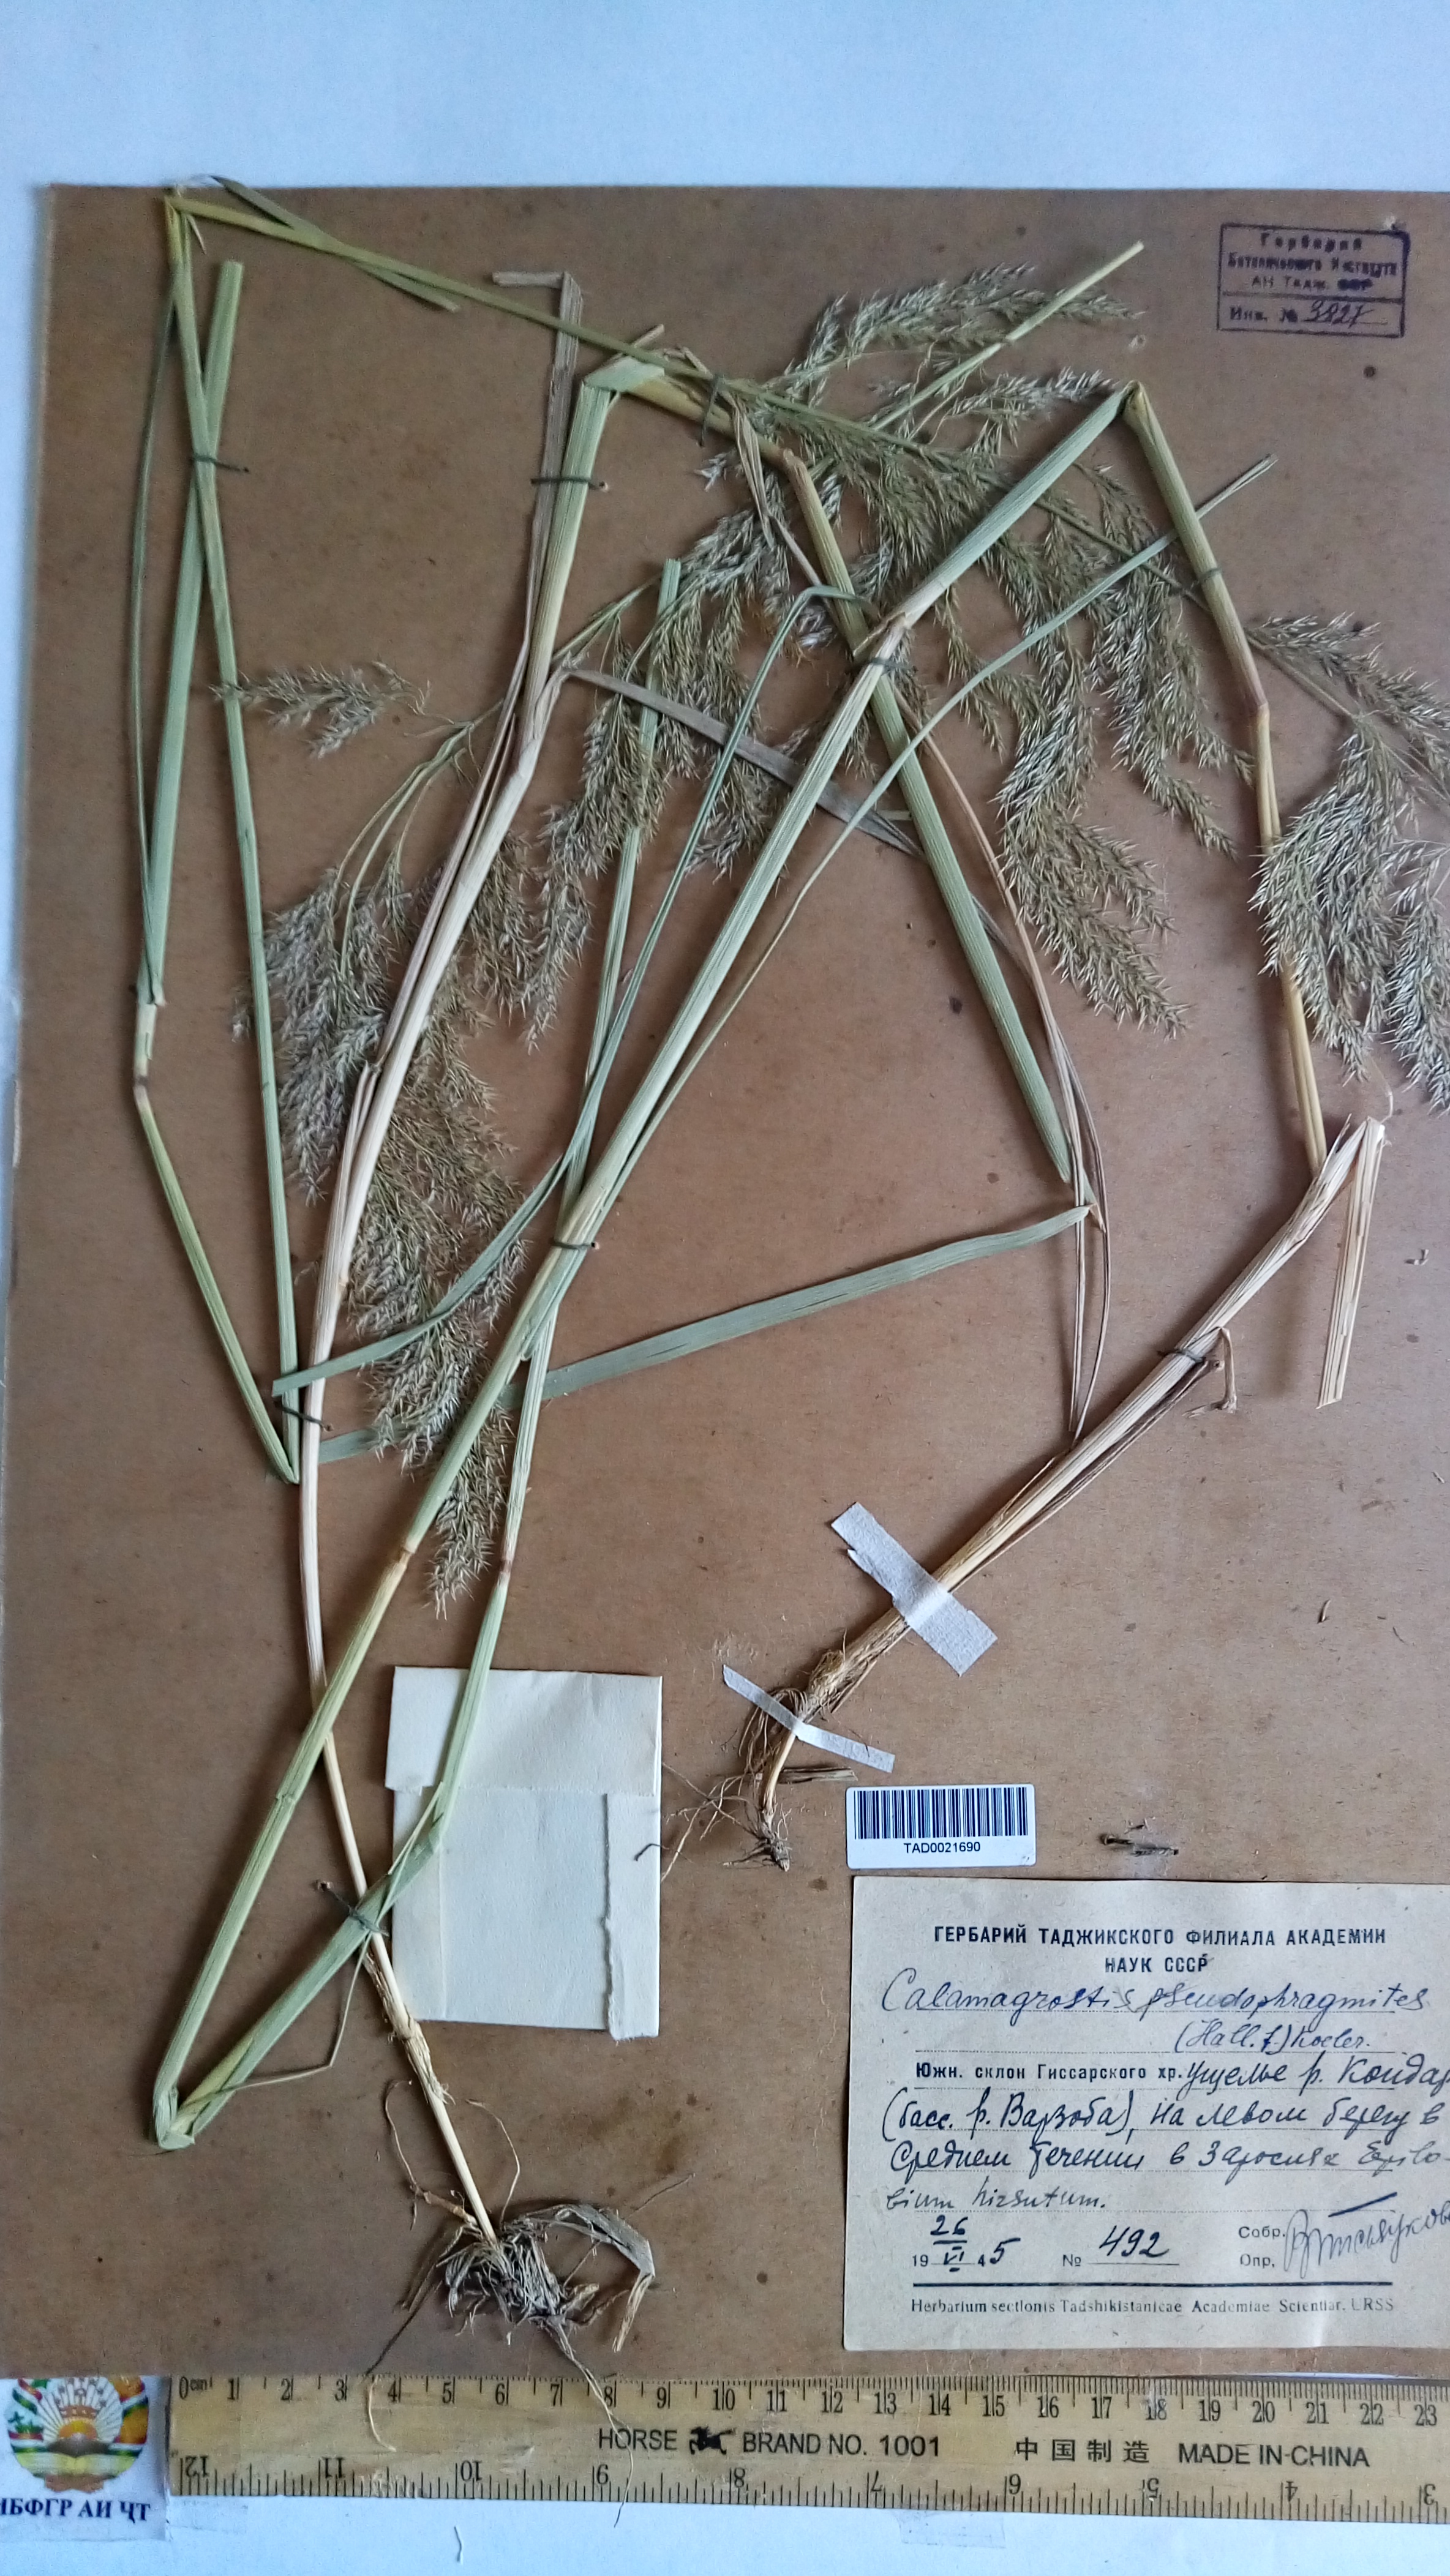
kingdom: Plantae
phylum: Tracheophyta
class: Liliopsida
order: Poales
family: Poaceae
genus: Calamagrostis
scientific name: Calamagrostis pseudophragmites
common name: Coastal small-reed
